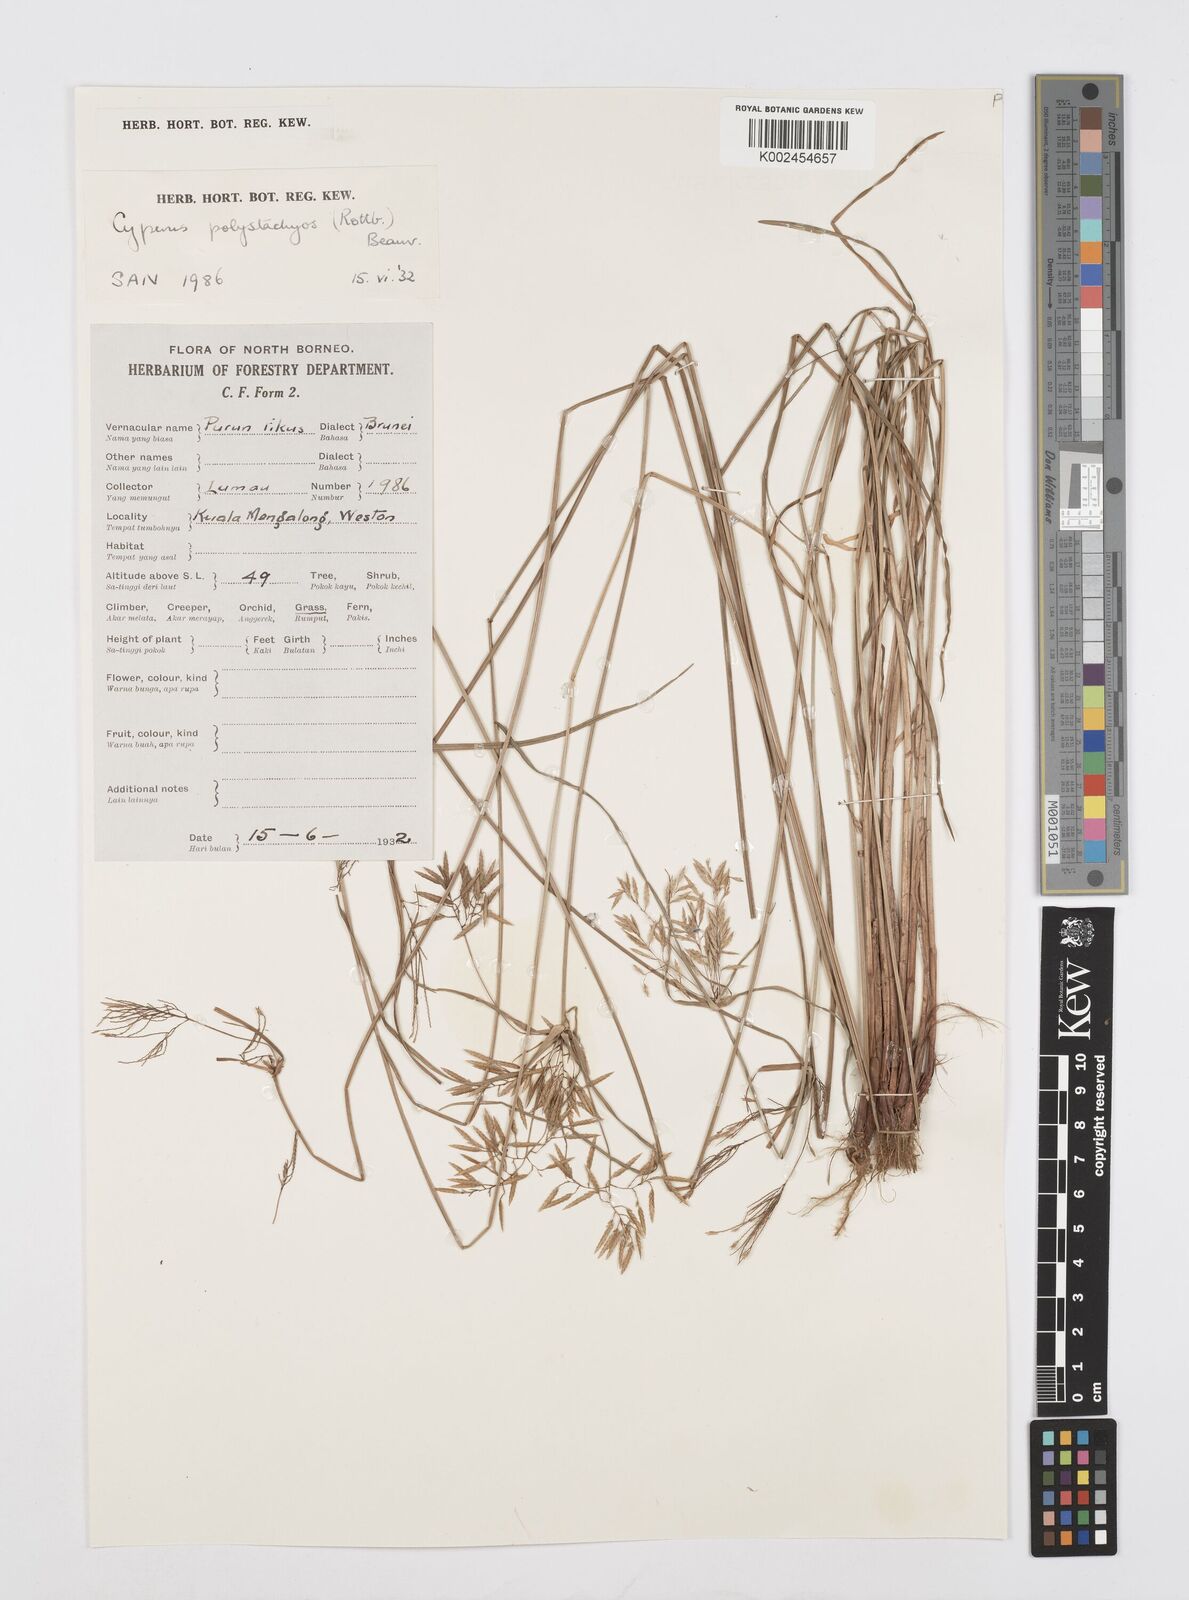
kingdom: Plantae
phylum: Tracheophyta
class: Liliopsida
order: Poales
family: Cyperaceae
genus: Cyperus
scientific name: Cyperus polystachyos
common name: Bunchy flat sedge
